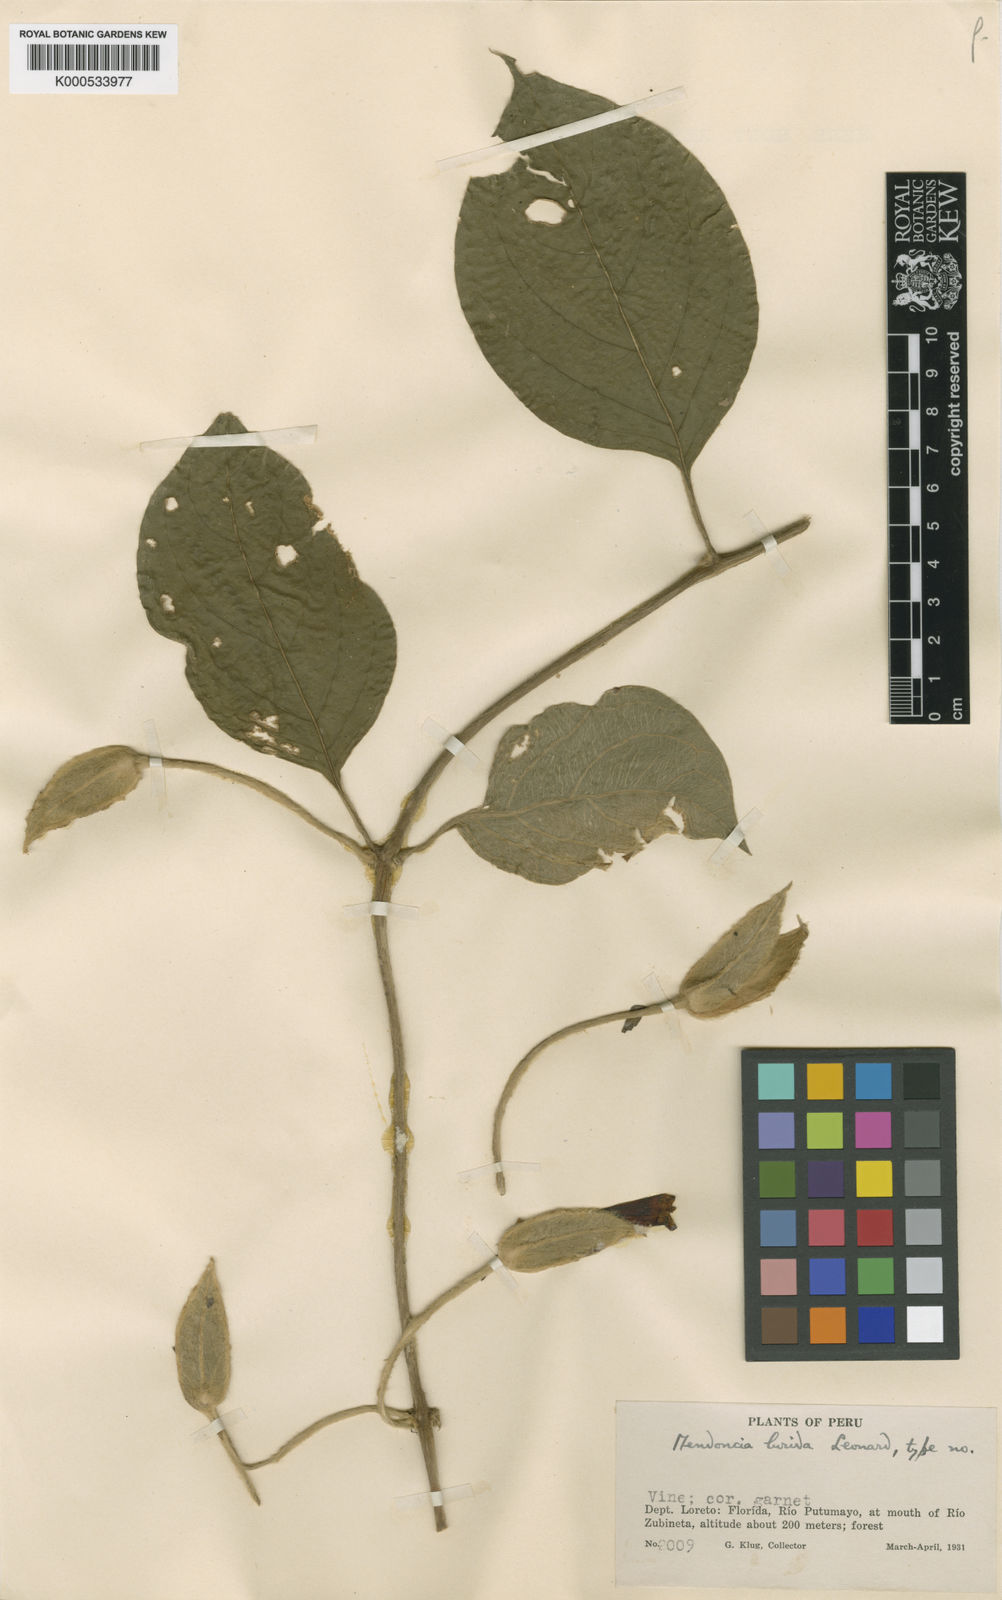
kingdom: Plantae
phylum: Tracheophyta
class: Magnoliopsida
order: Lamiales
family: Acanthaceae
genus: Mendoncia
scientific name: Mendoncia
